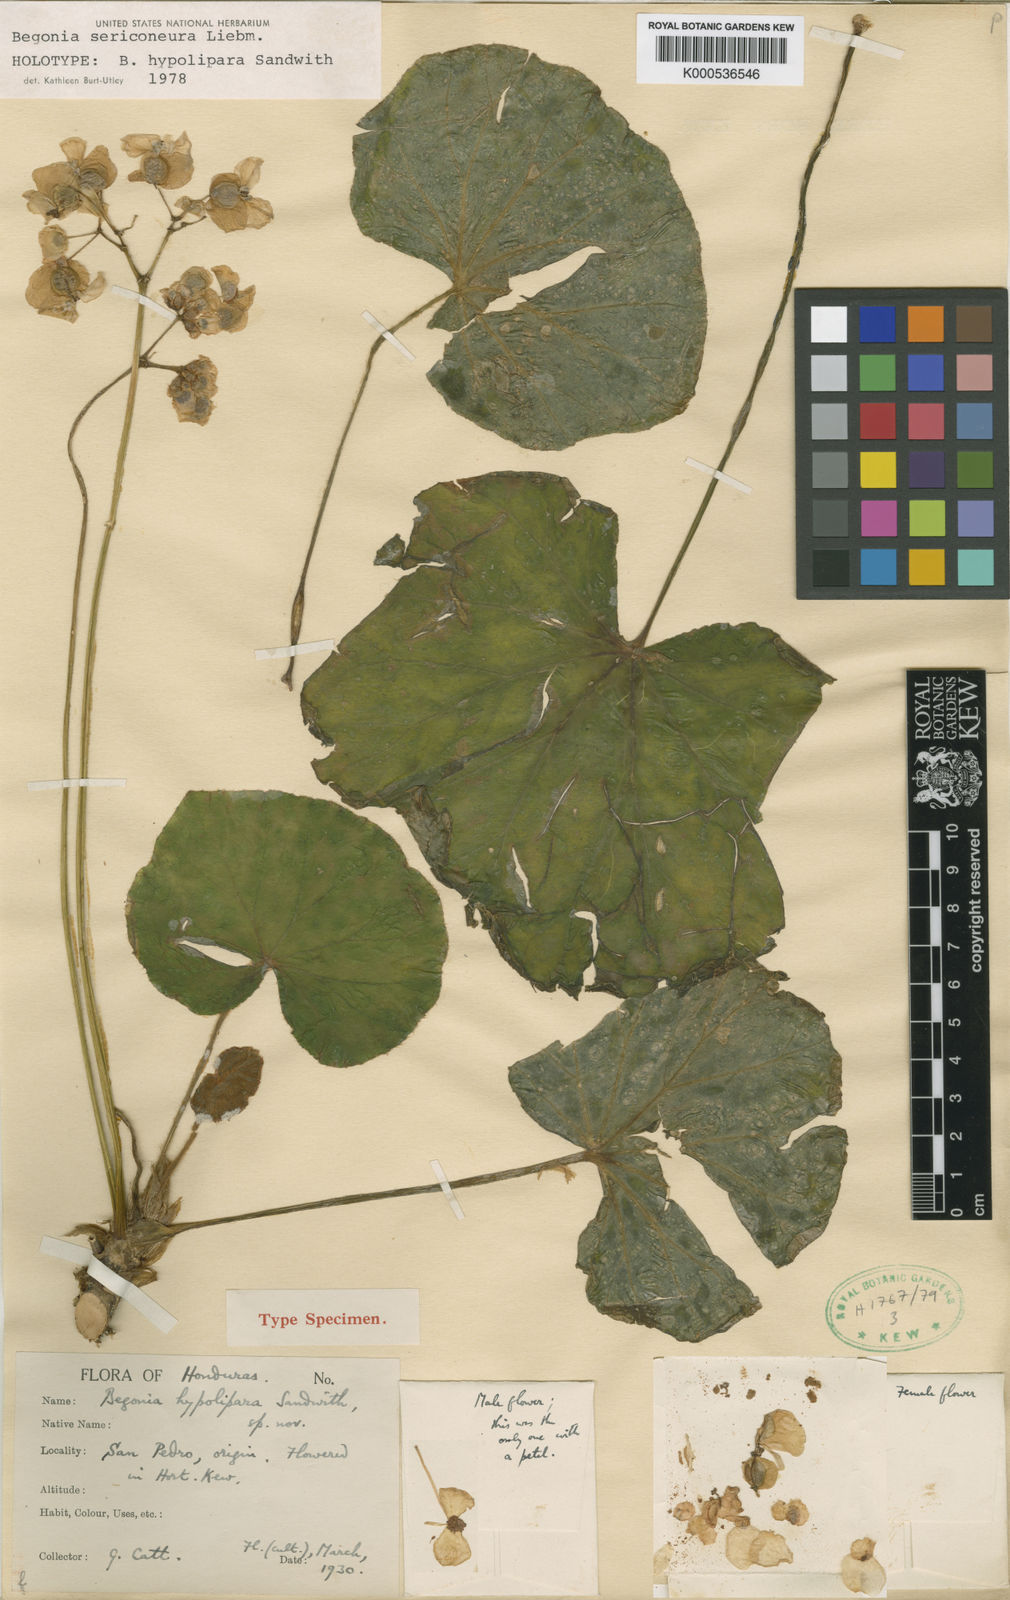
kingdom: Plantae
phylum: Tracheophyta
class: Magnoliopsida
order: Cucurbitales
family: Begoniaceae
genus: Begonia
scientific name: Begonia sericoneura
